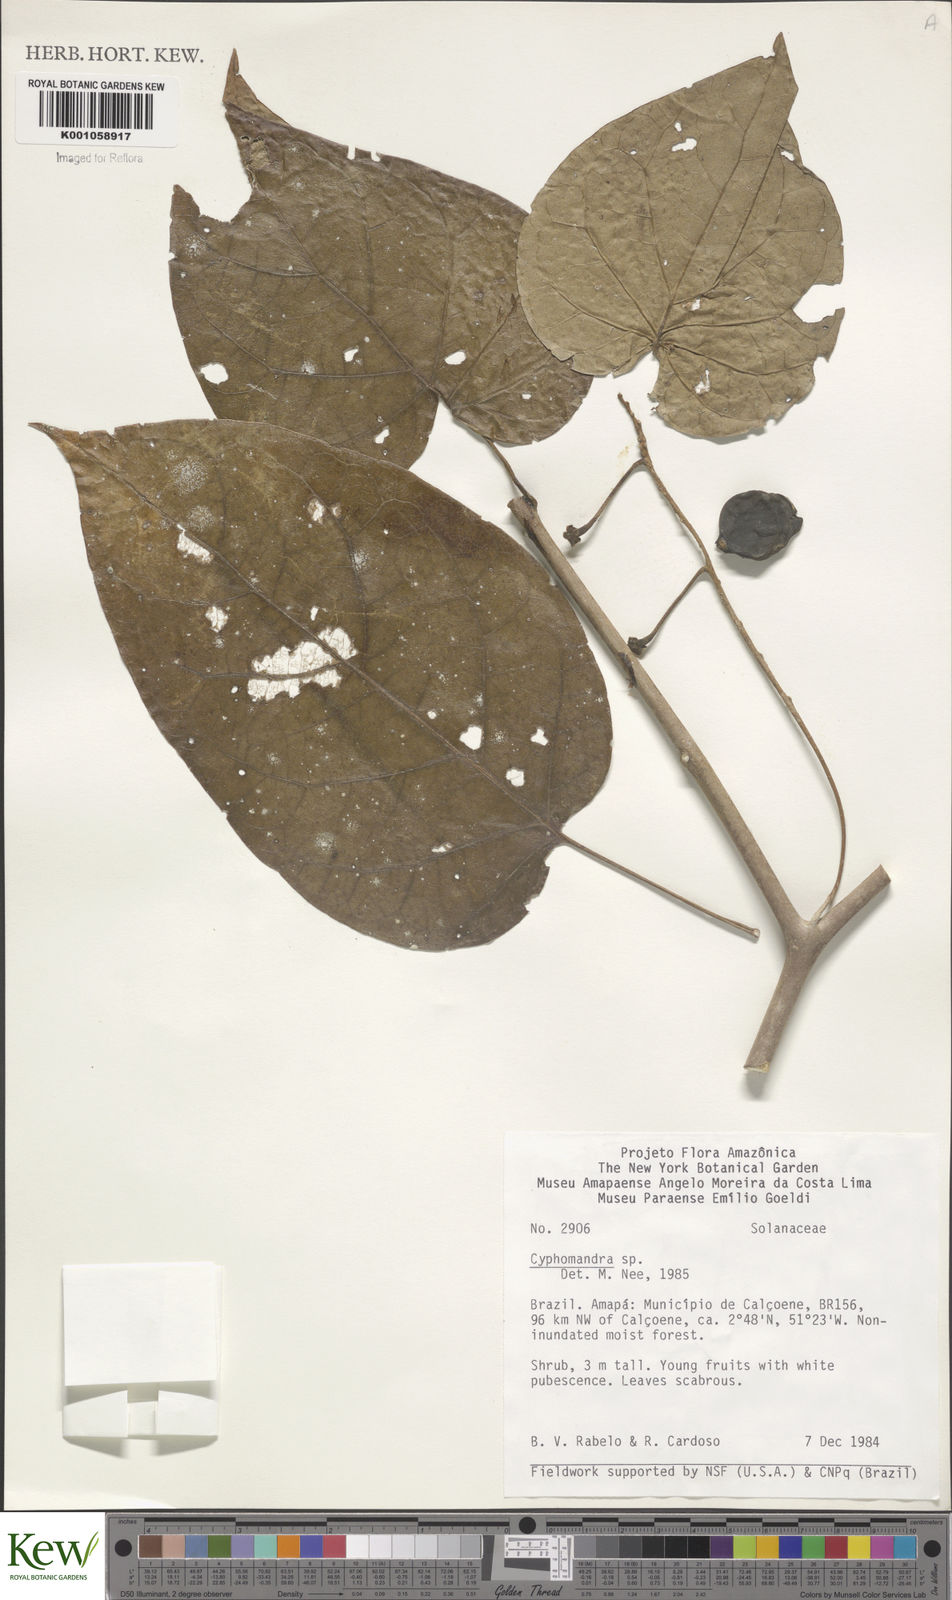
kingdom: Plantae
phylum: Tracheophyta
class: Magnoliopsida
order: Solanales
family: Solanaceae
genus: Solanum
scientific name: Solanum endopogon
